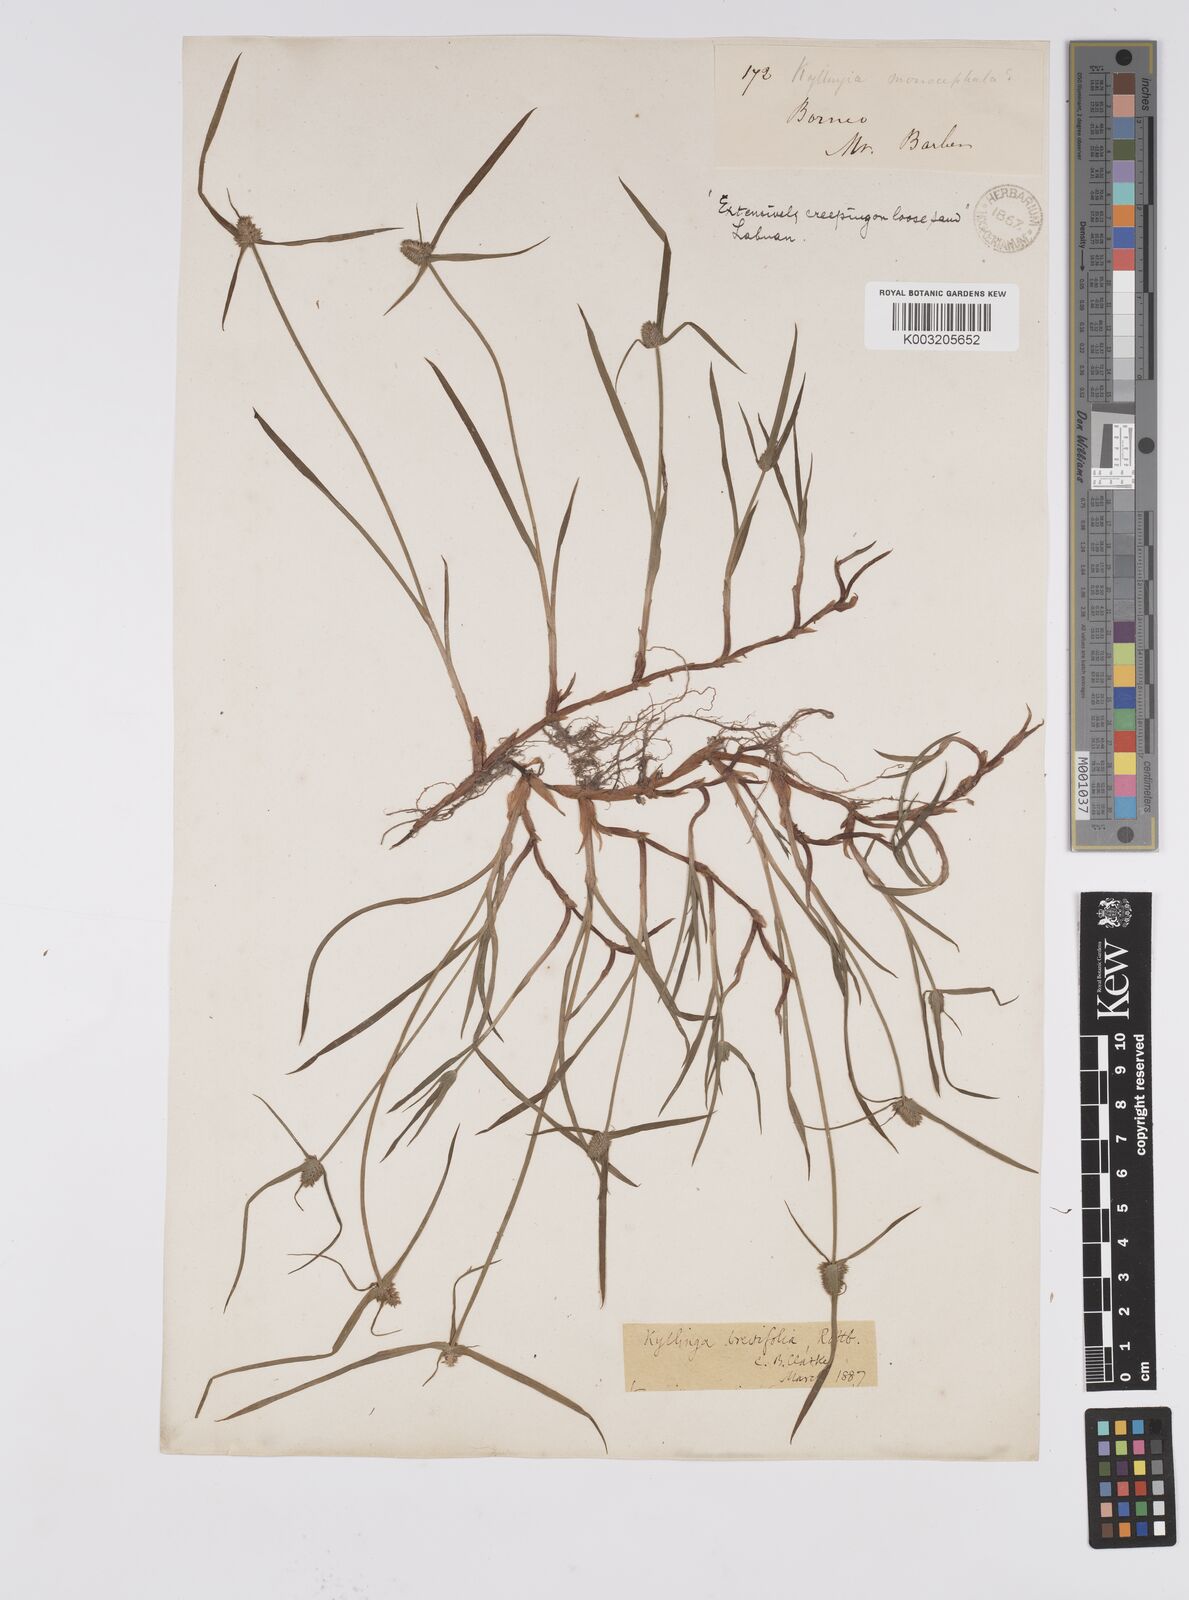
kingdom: Plantae
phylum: Tracheophyta
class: Liliopsida
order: Poales
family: Cyperaceae
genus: Cyperus
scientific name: Cyperus brevifolius
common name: Globe kyllinga
